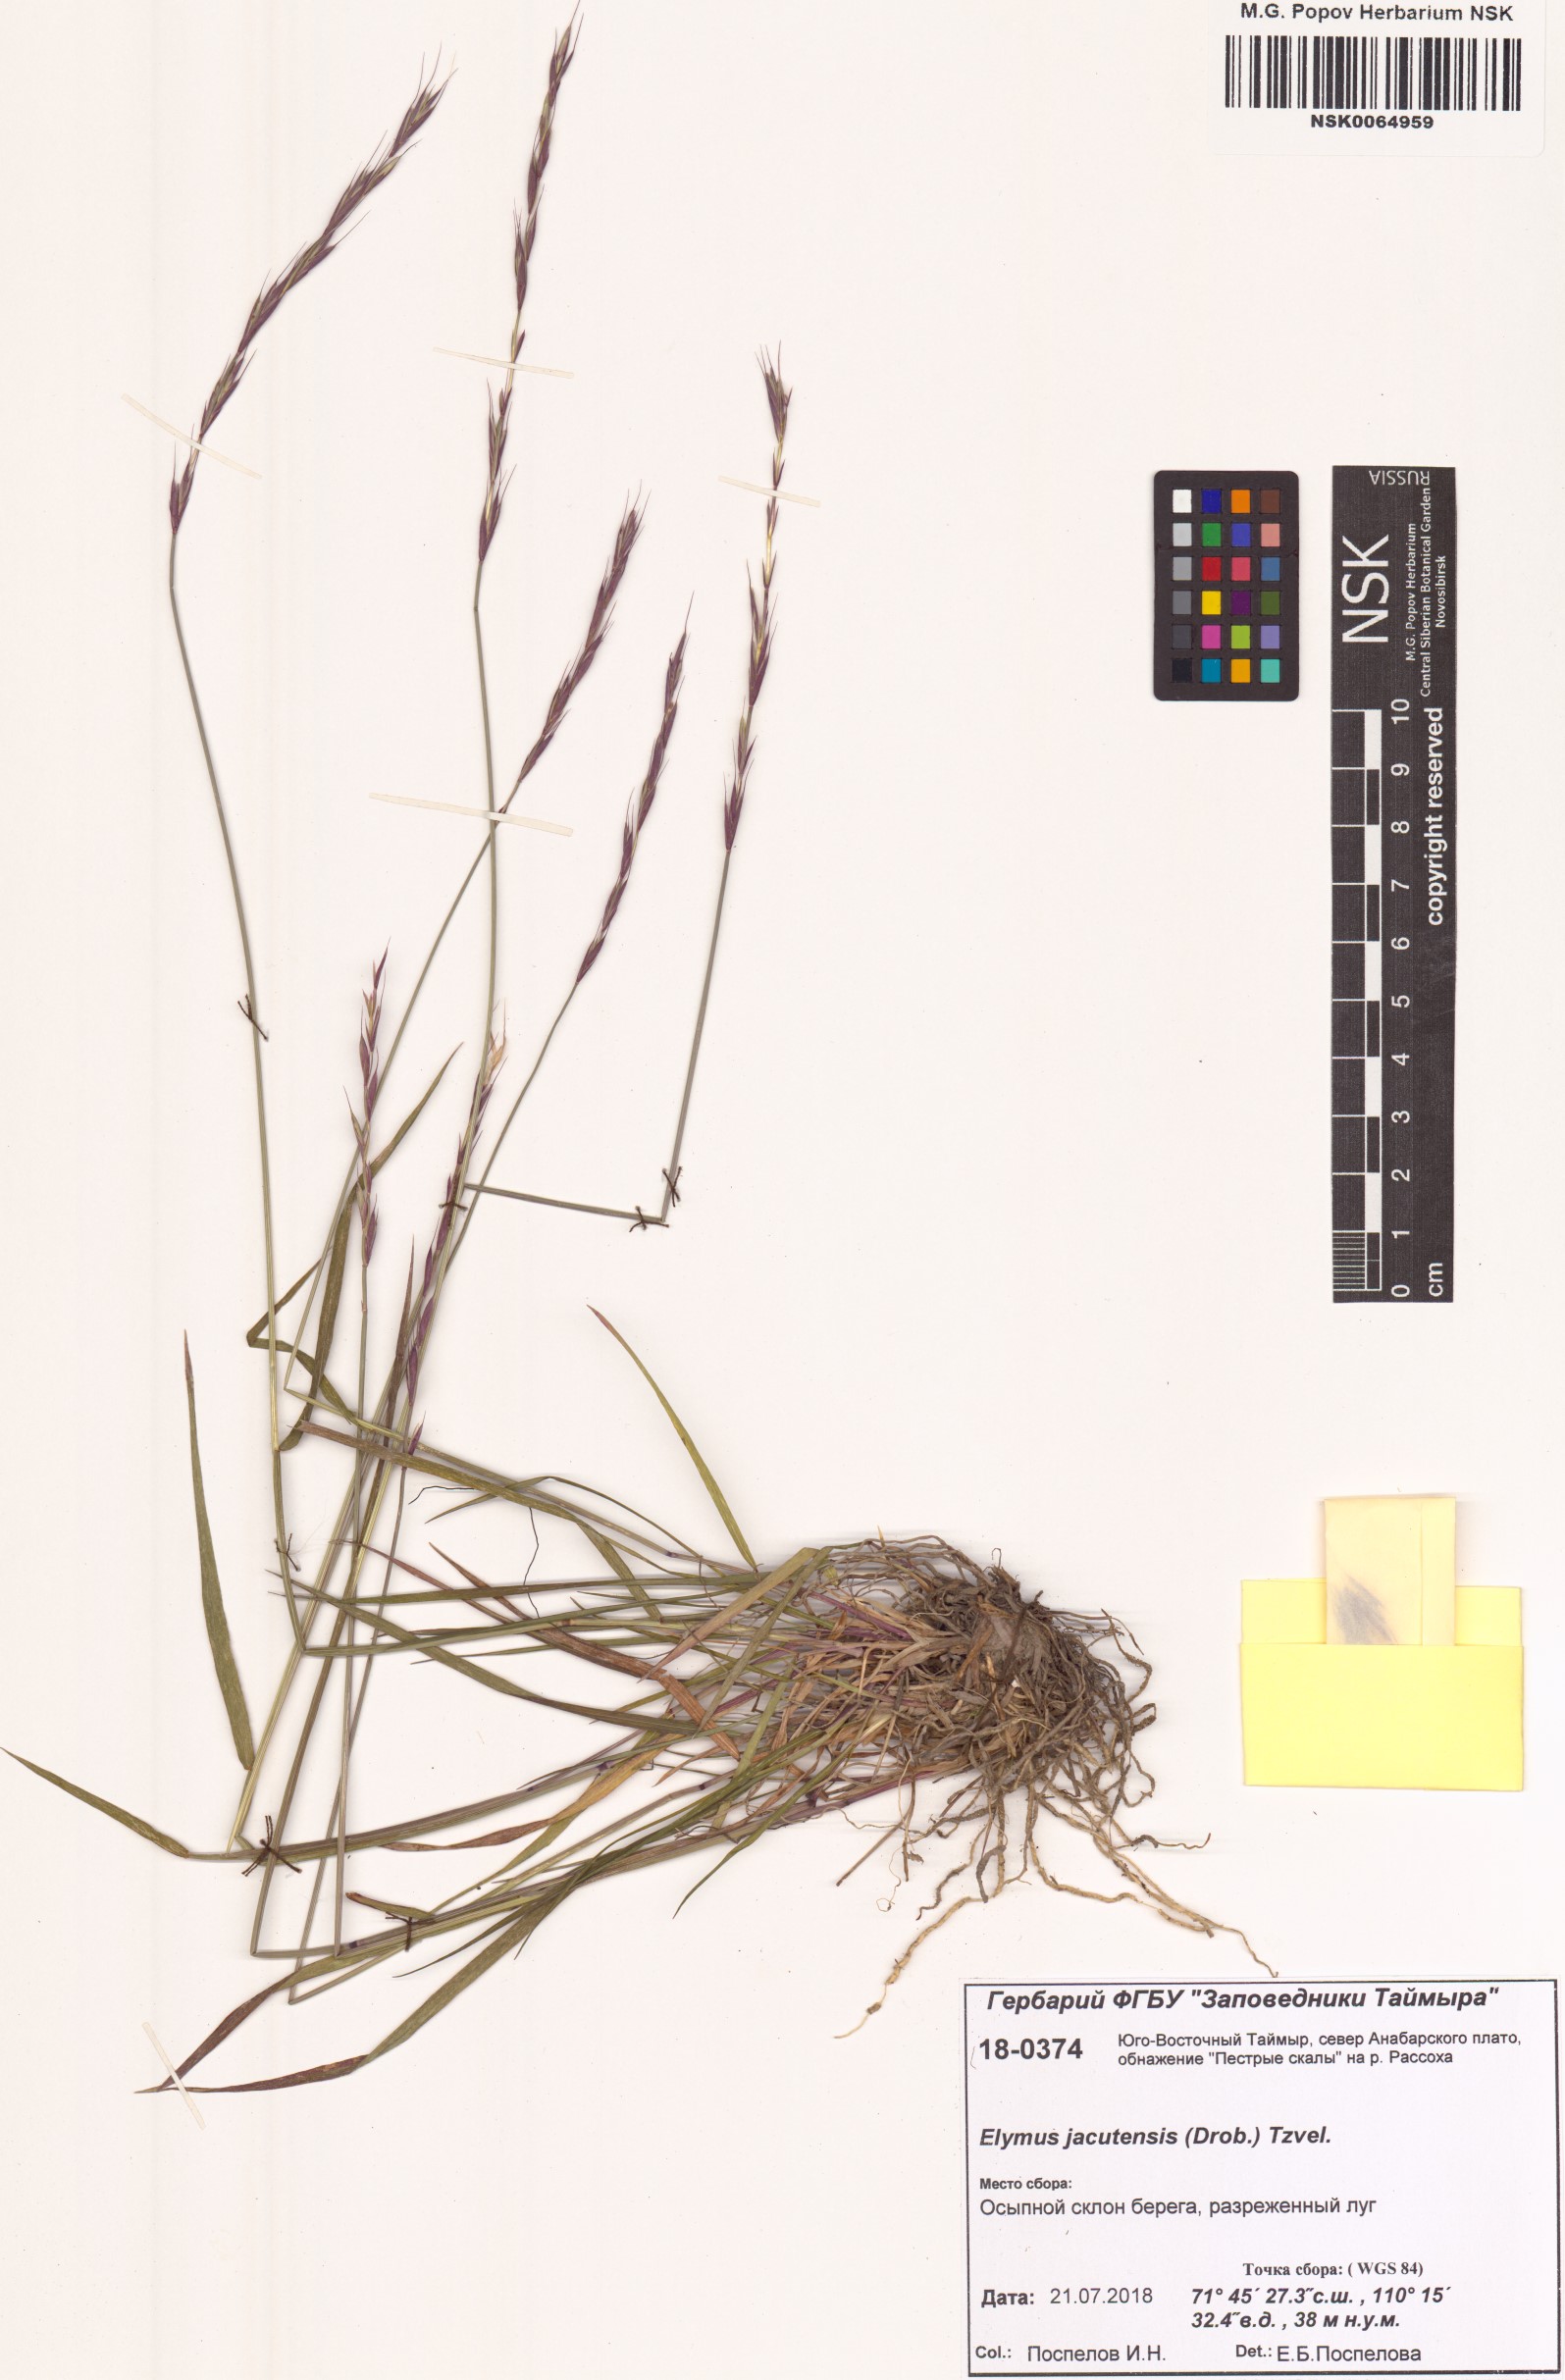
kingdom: Plantae
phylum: Tracheophyta
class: Liliopsida
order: Poales
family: Poaceae
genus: Elymus
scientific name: Elymus jacutensis
